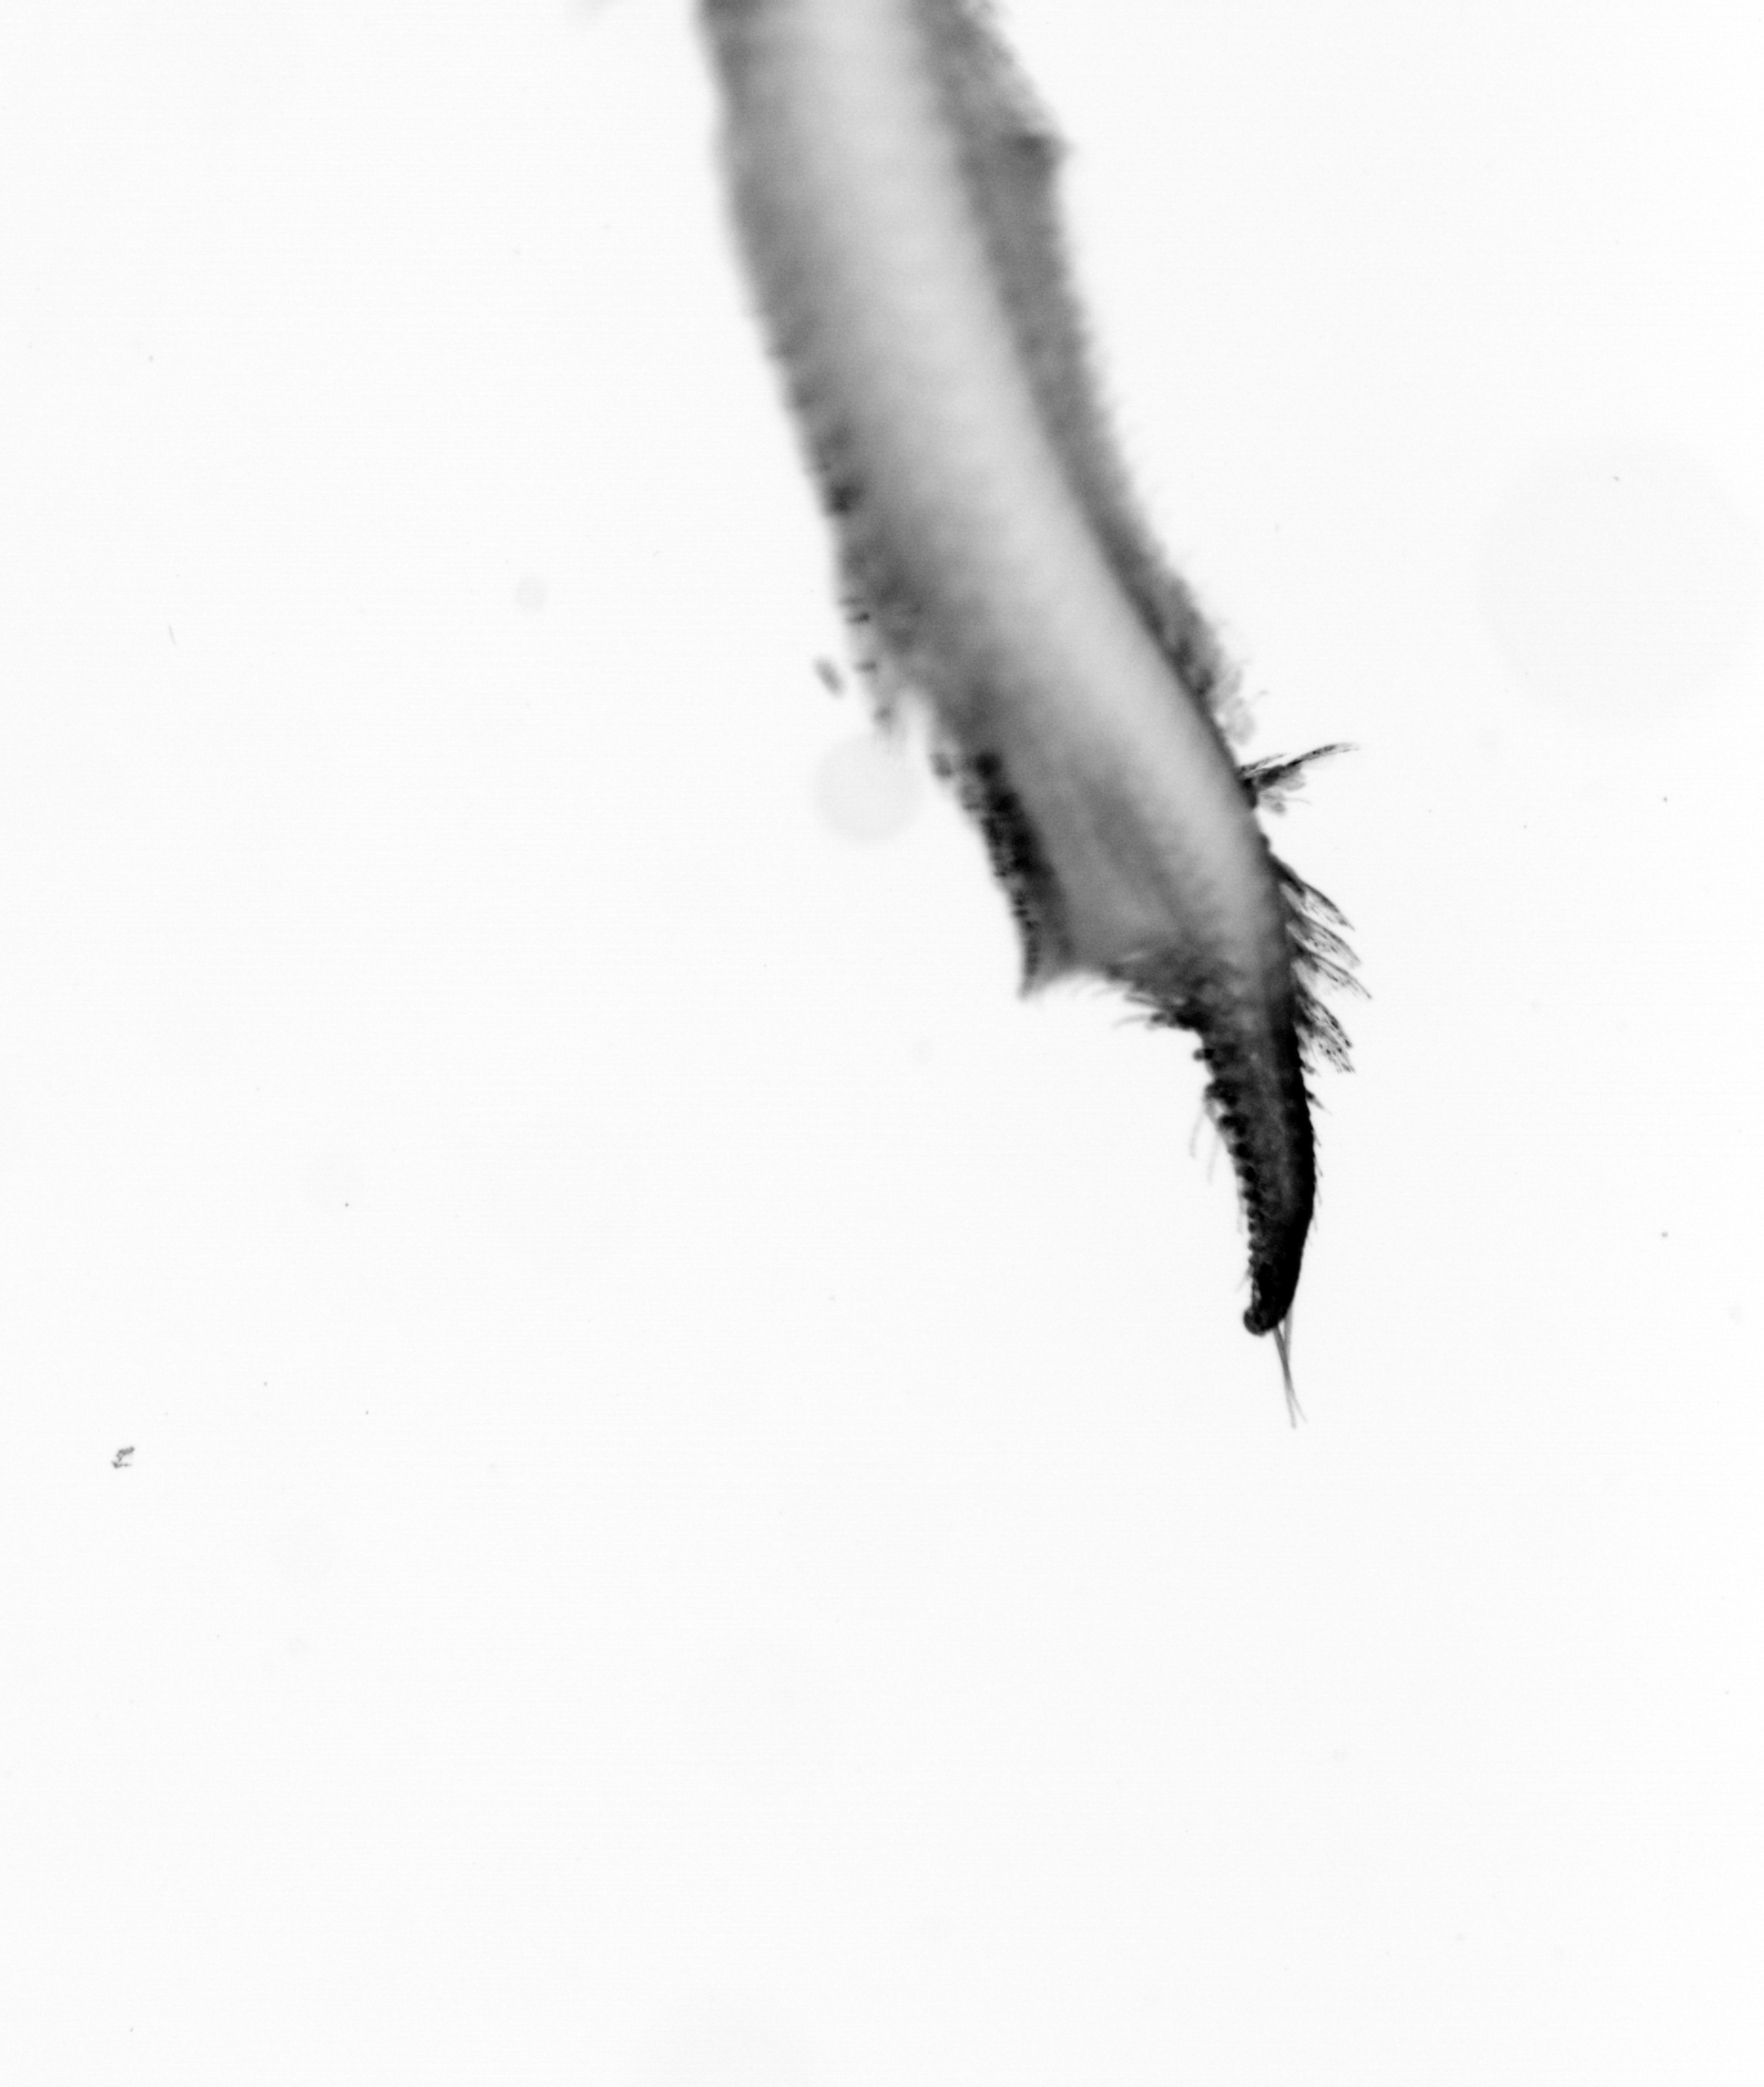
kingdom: Animalia
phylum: Annelida
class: Polychaeta
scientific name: Polychaeta
